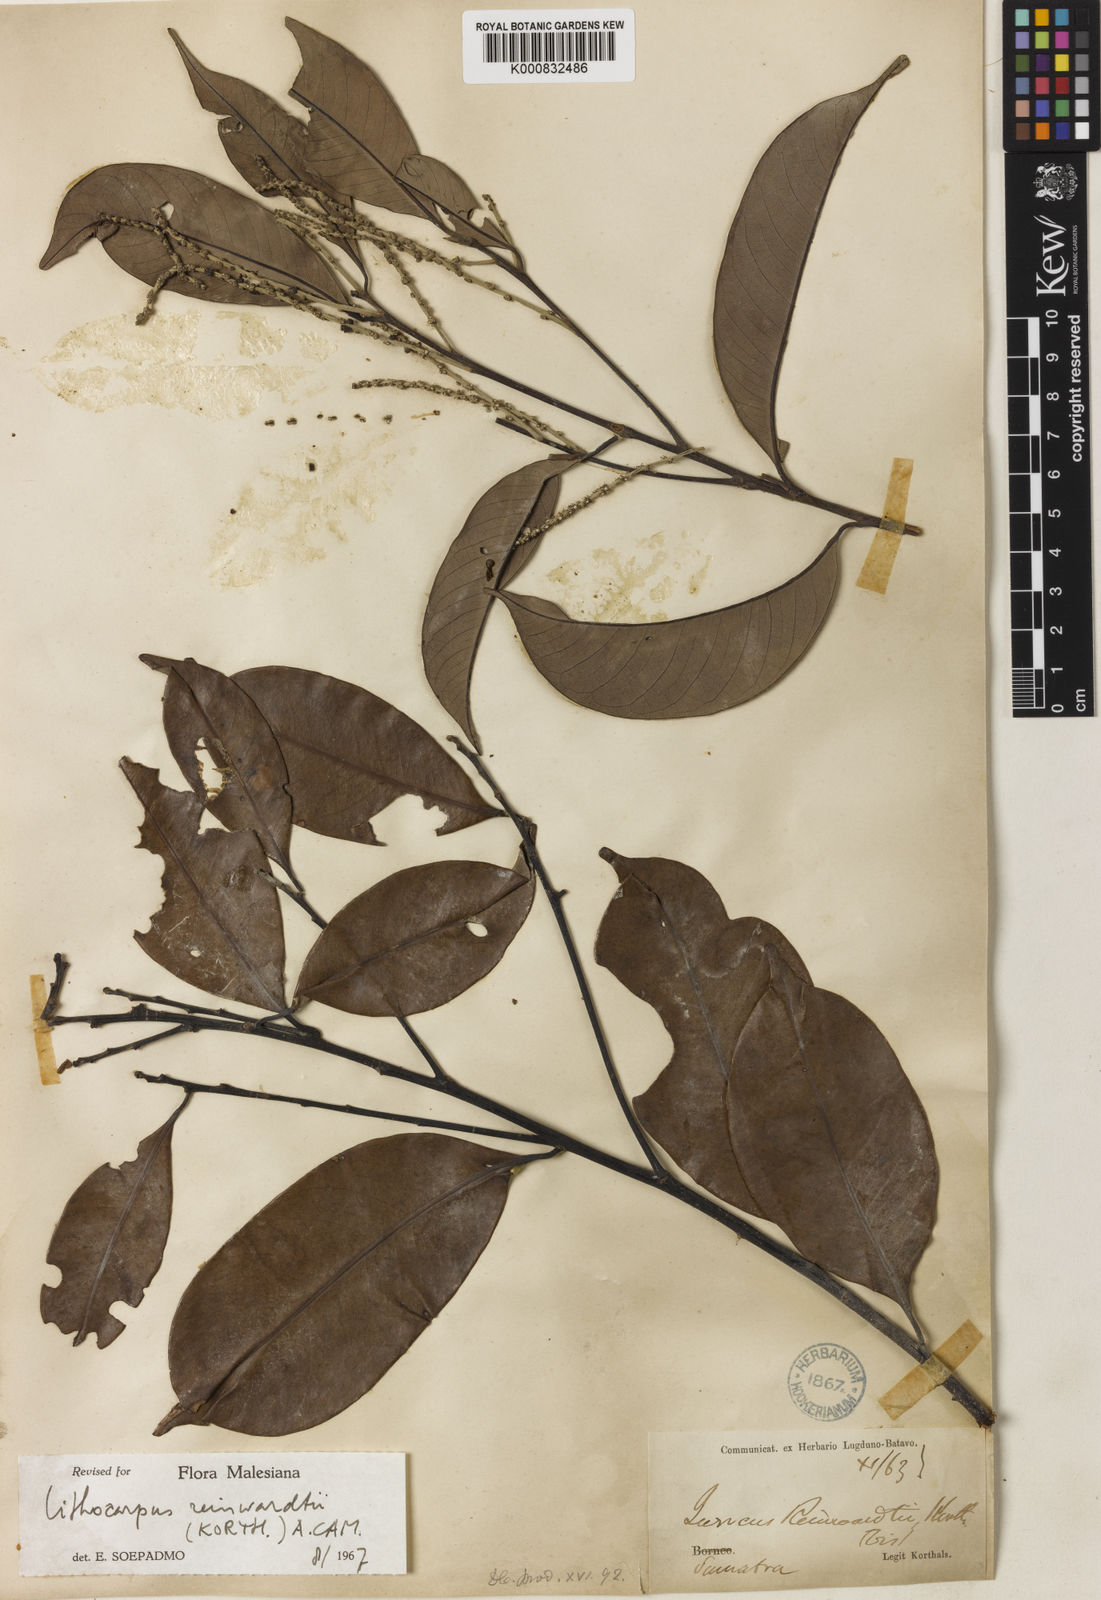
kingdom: Plantae
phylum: Tracheophyta
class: Magnoliopsida
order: Fagales
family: Fagaceae
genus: Lithocarpus
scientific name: Lithocarpus reinwardtii
